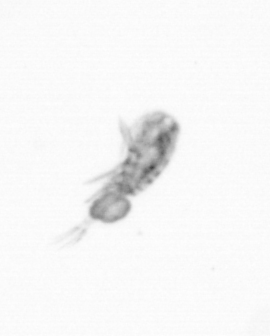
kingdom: Animalia
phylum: Arthropoda
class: Copepoda
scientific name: Copepoda
